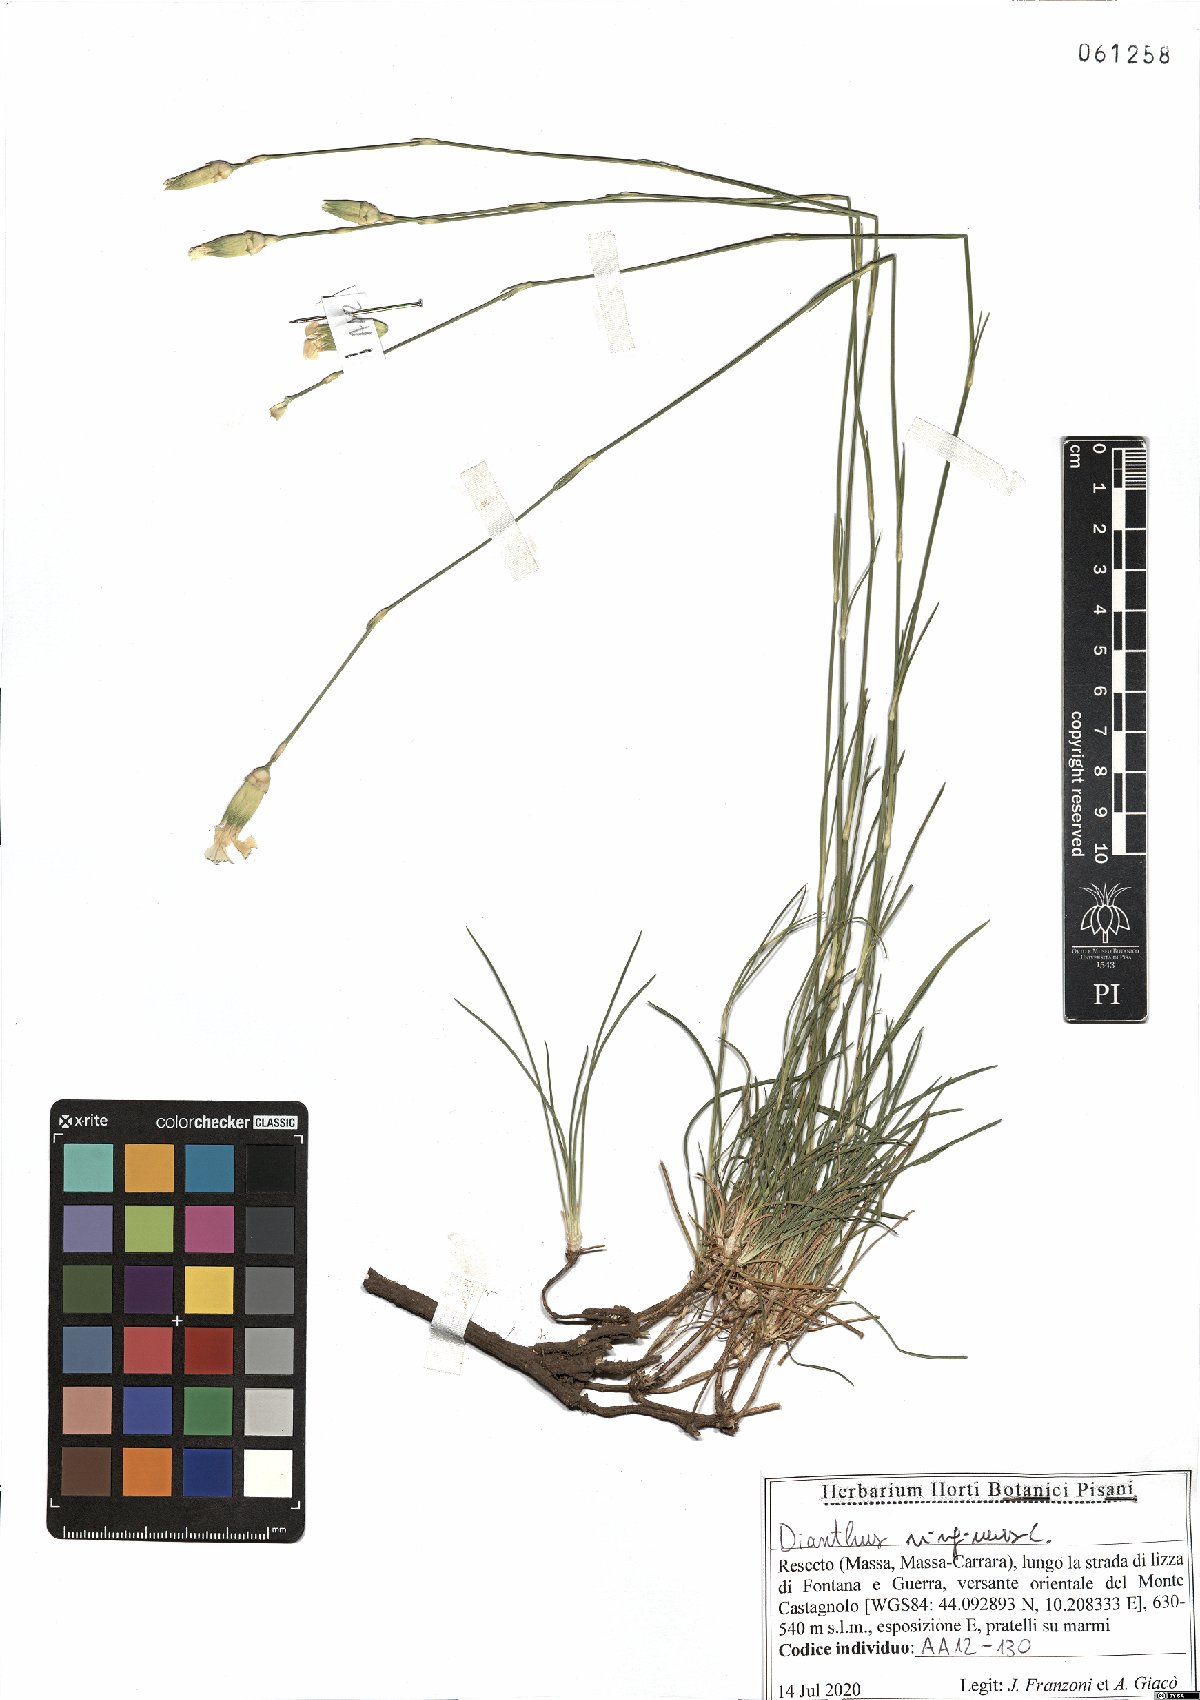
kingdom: Plantae
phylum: Tracheophyta
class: Magnoliopsida
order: Caryophyllales
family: Caryophyllaceae
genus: Dianthus
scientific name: Dianthus virgineus
